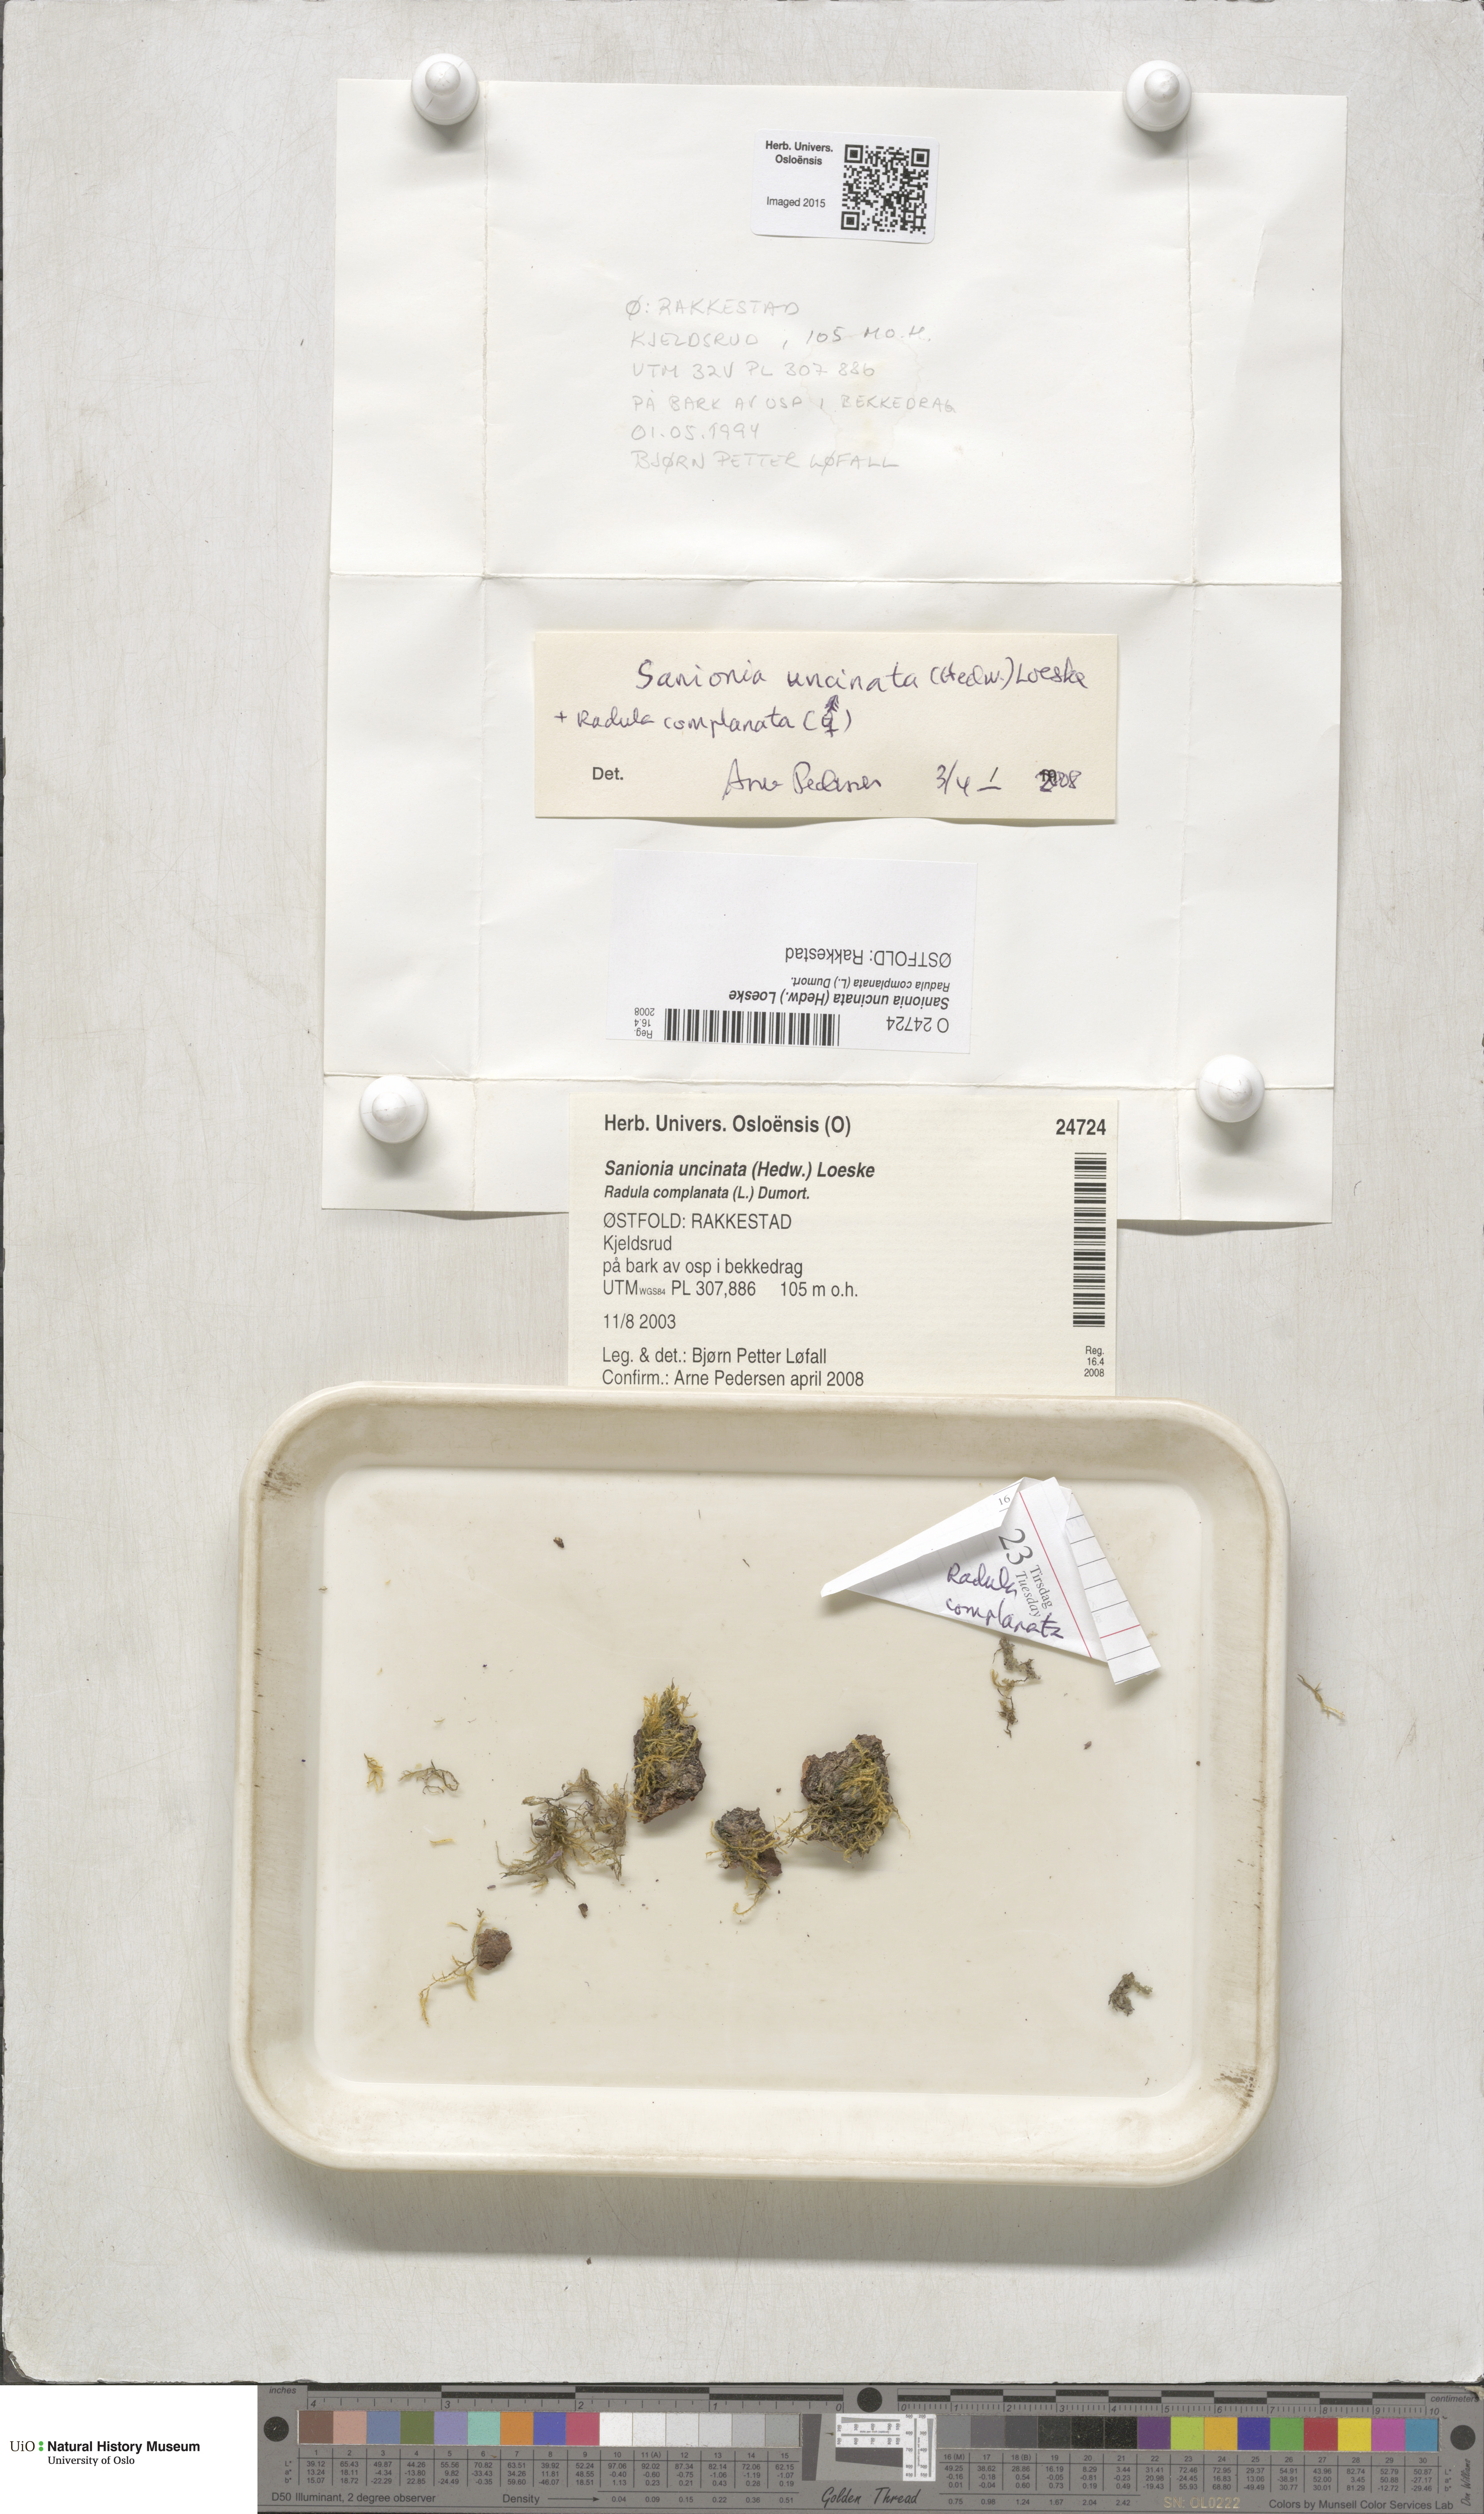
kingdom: Plantae
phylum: Bryophyta
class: Bryopsida
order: Hypnales
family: Scorpidiaceae
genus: Sanionia
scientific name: Sanionia uncinata
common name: Sickle moss
